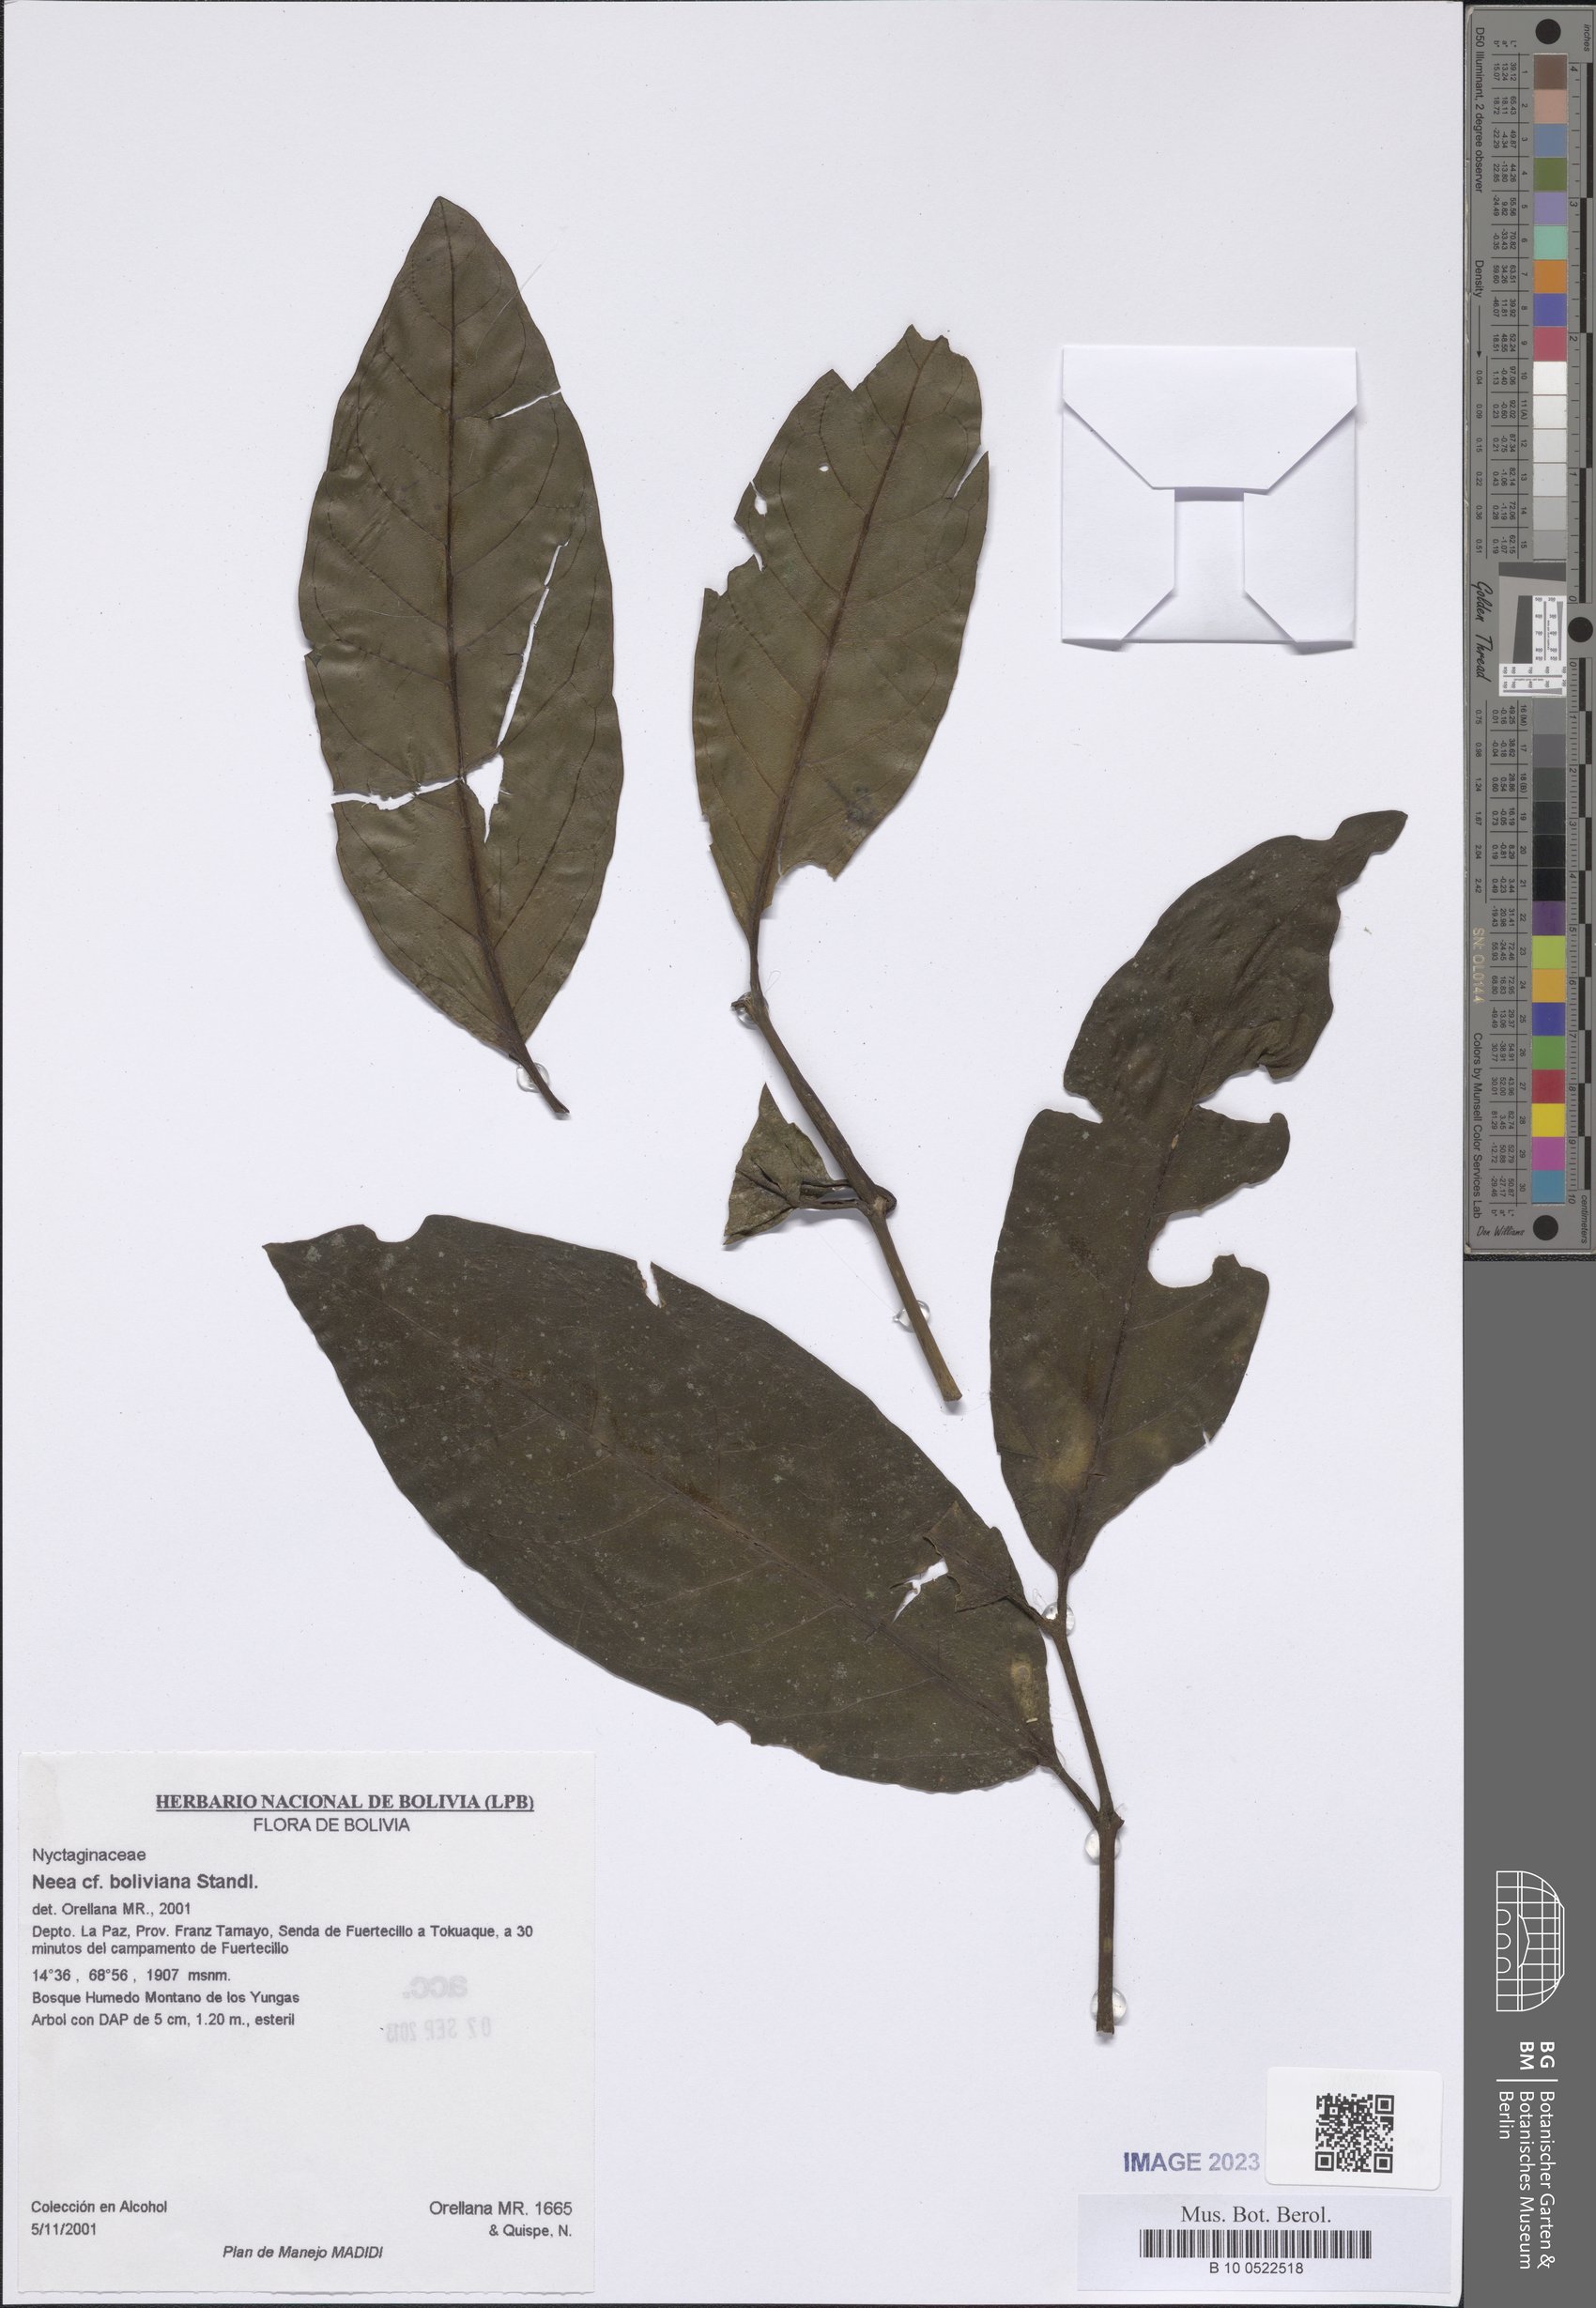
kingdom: Plantae
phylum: Tracheophyta
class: Magnoliopsida
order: Caryophyllales
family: Nyctaginaceae
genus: Neea
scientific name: Neea
